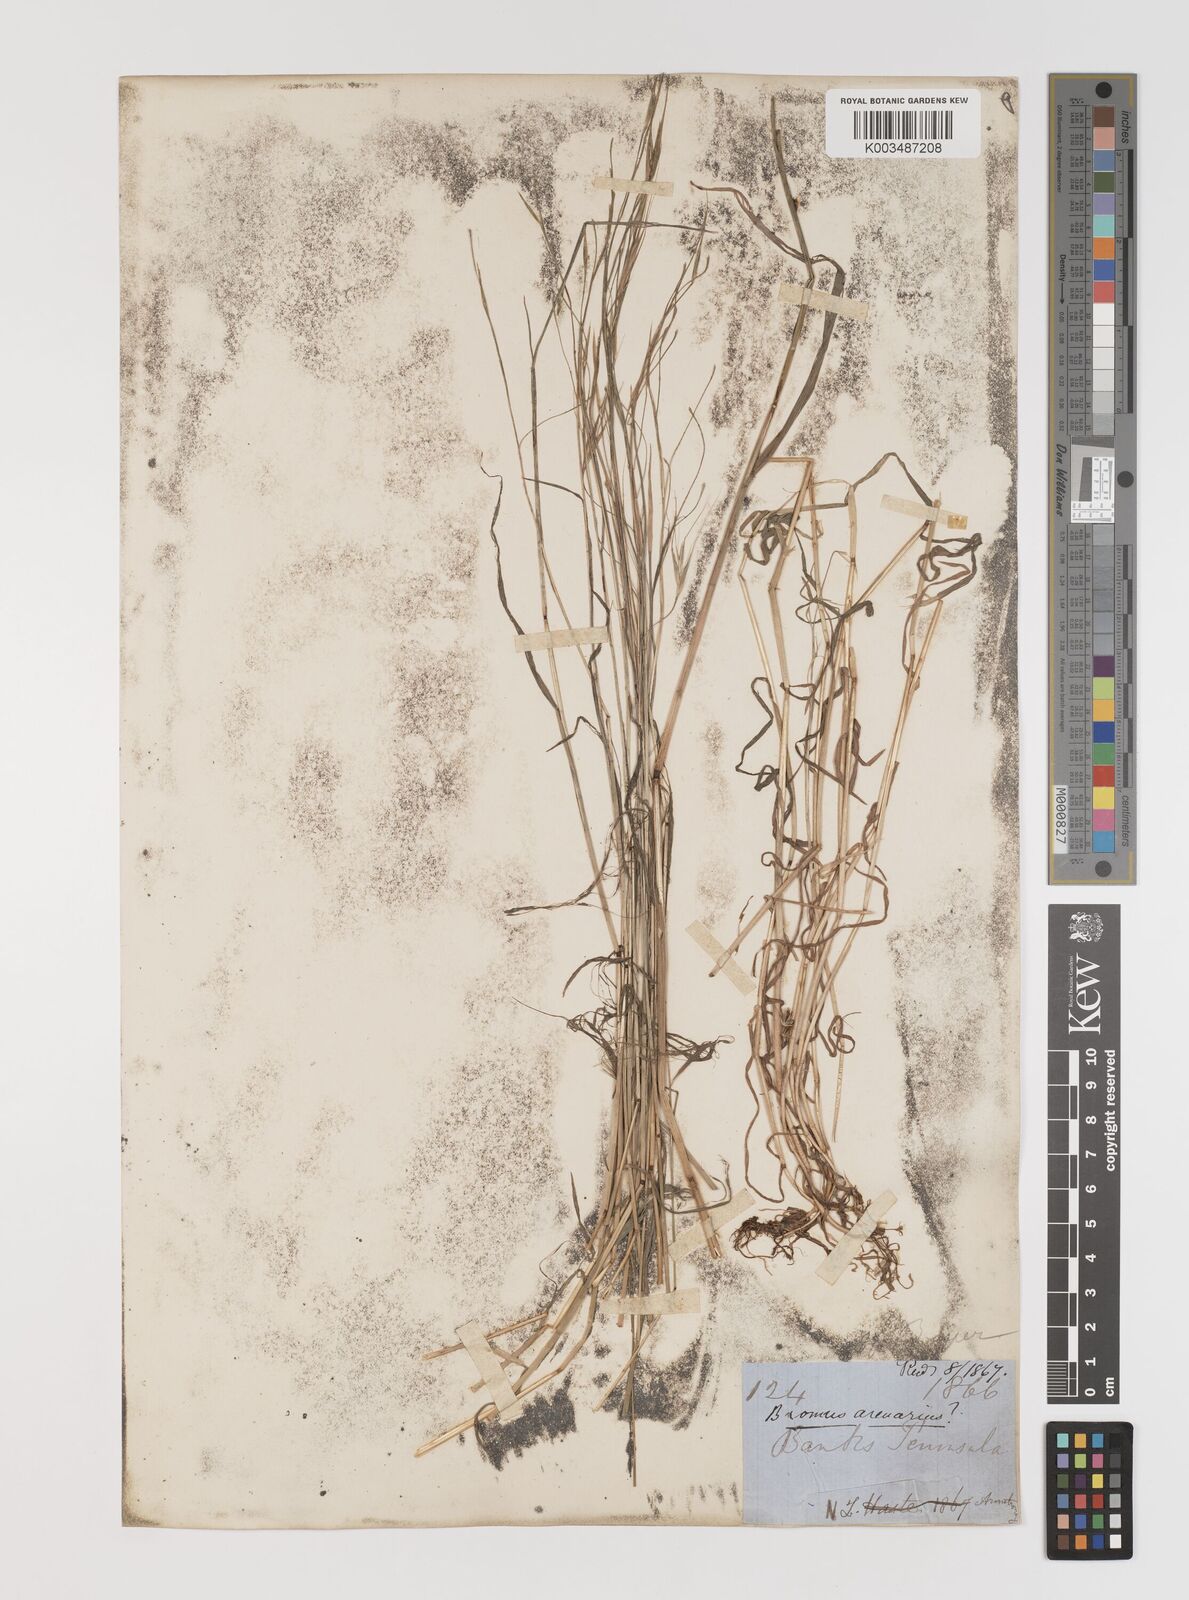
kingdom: Plantae
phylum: Tracheophyta
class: Liliopsida
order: Poales
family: Poaceae
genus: Bromus
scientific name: Bromus arenarius
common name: Australian brome
